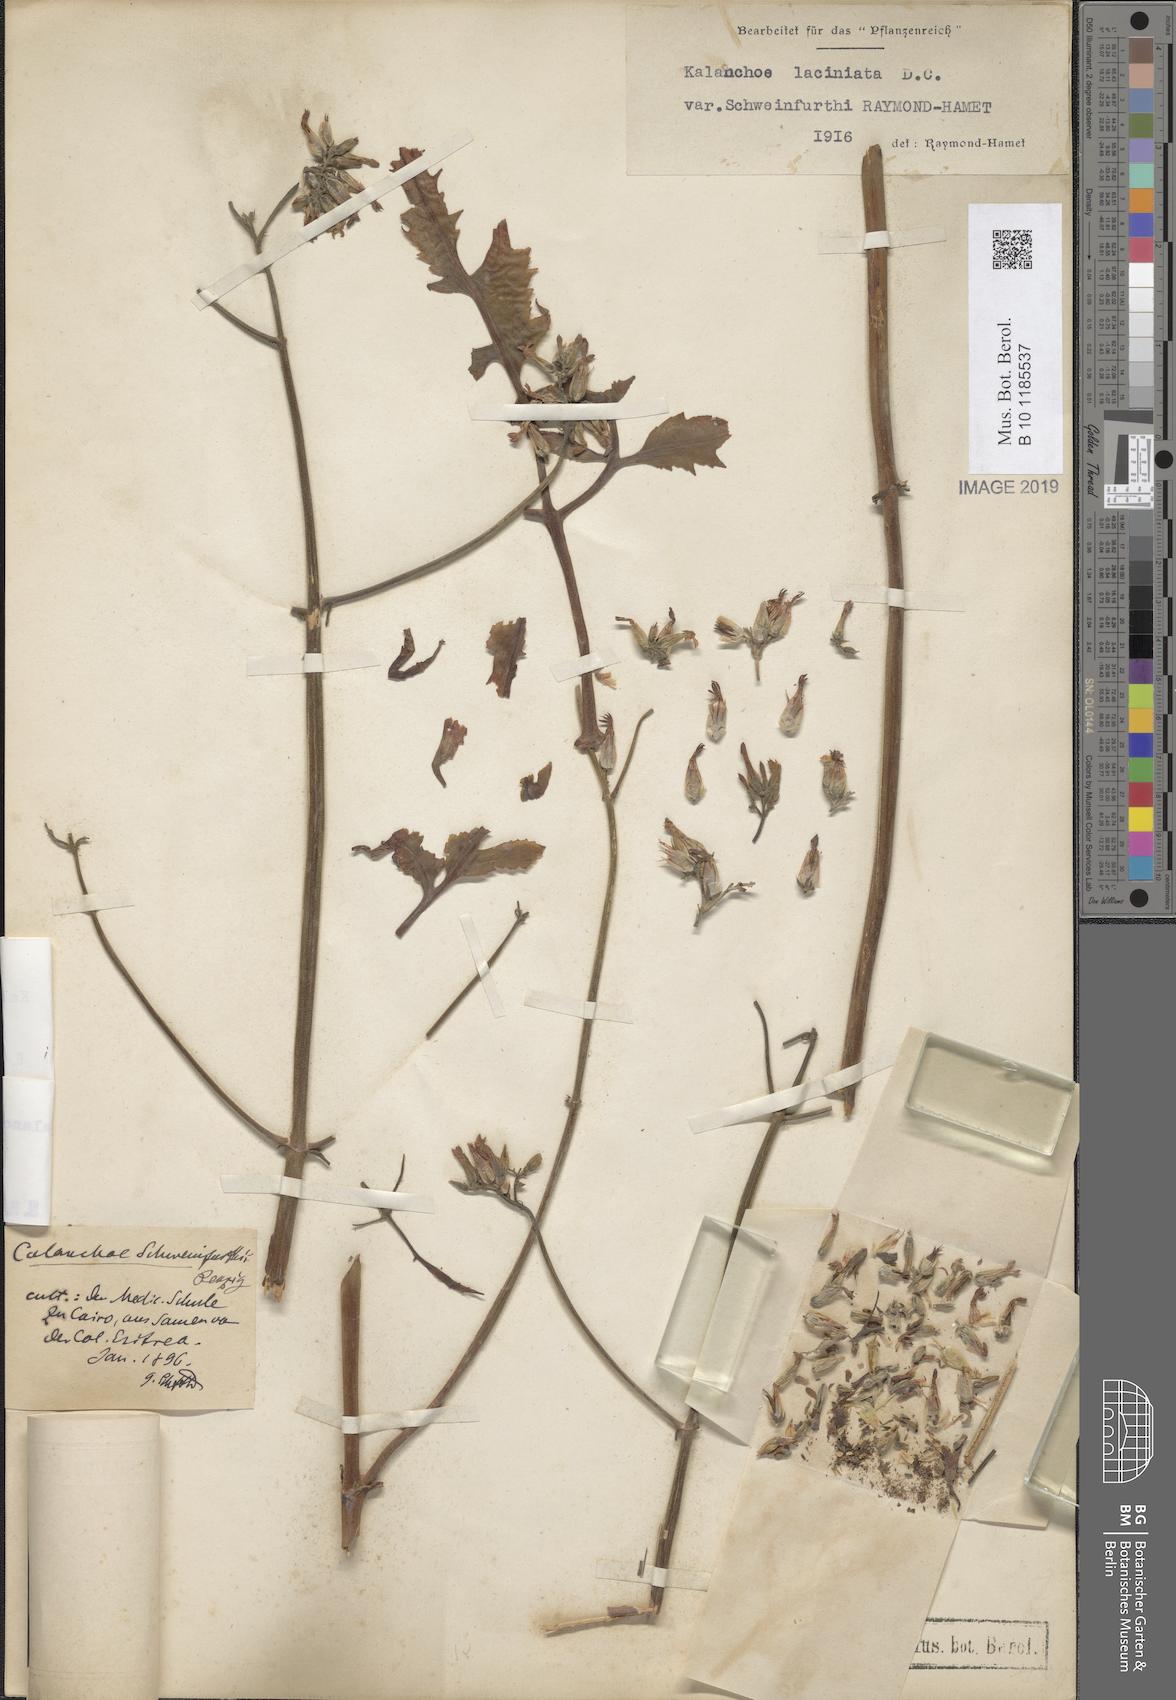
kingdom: Plantae
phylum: Tracheophyta
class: Magnoliopsida
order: Saxifragales
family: Crassulaceae
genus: Kalanchoe
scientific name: Kalanchoe laciniata
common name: Christmastree plant
